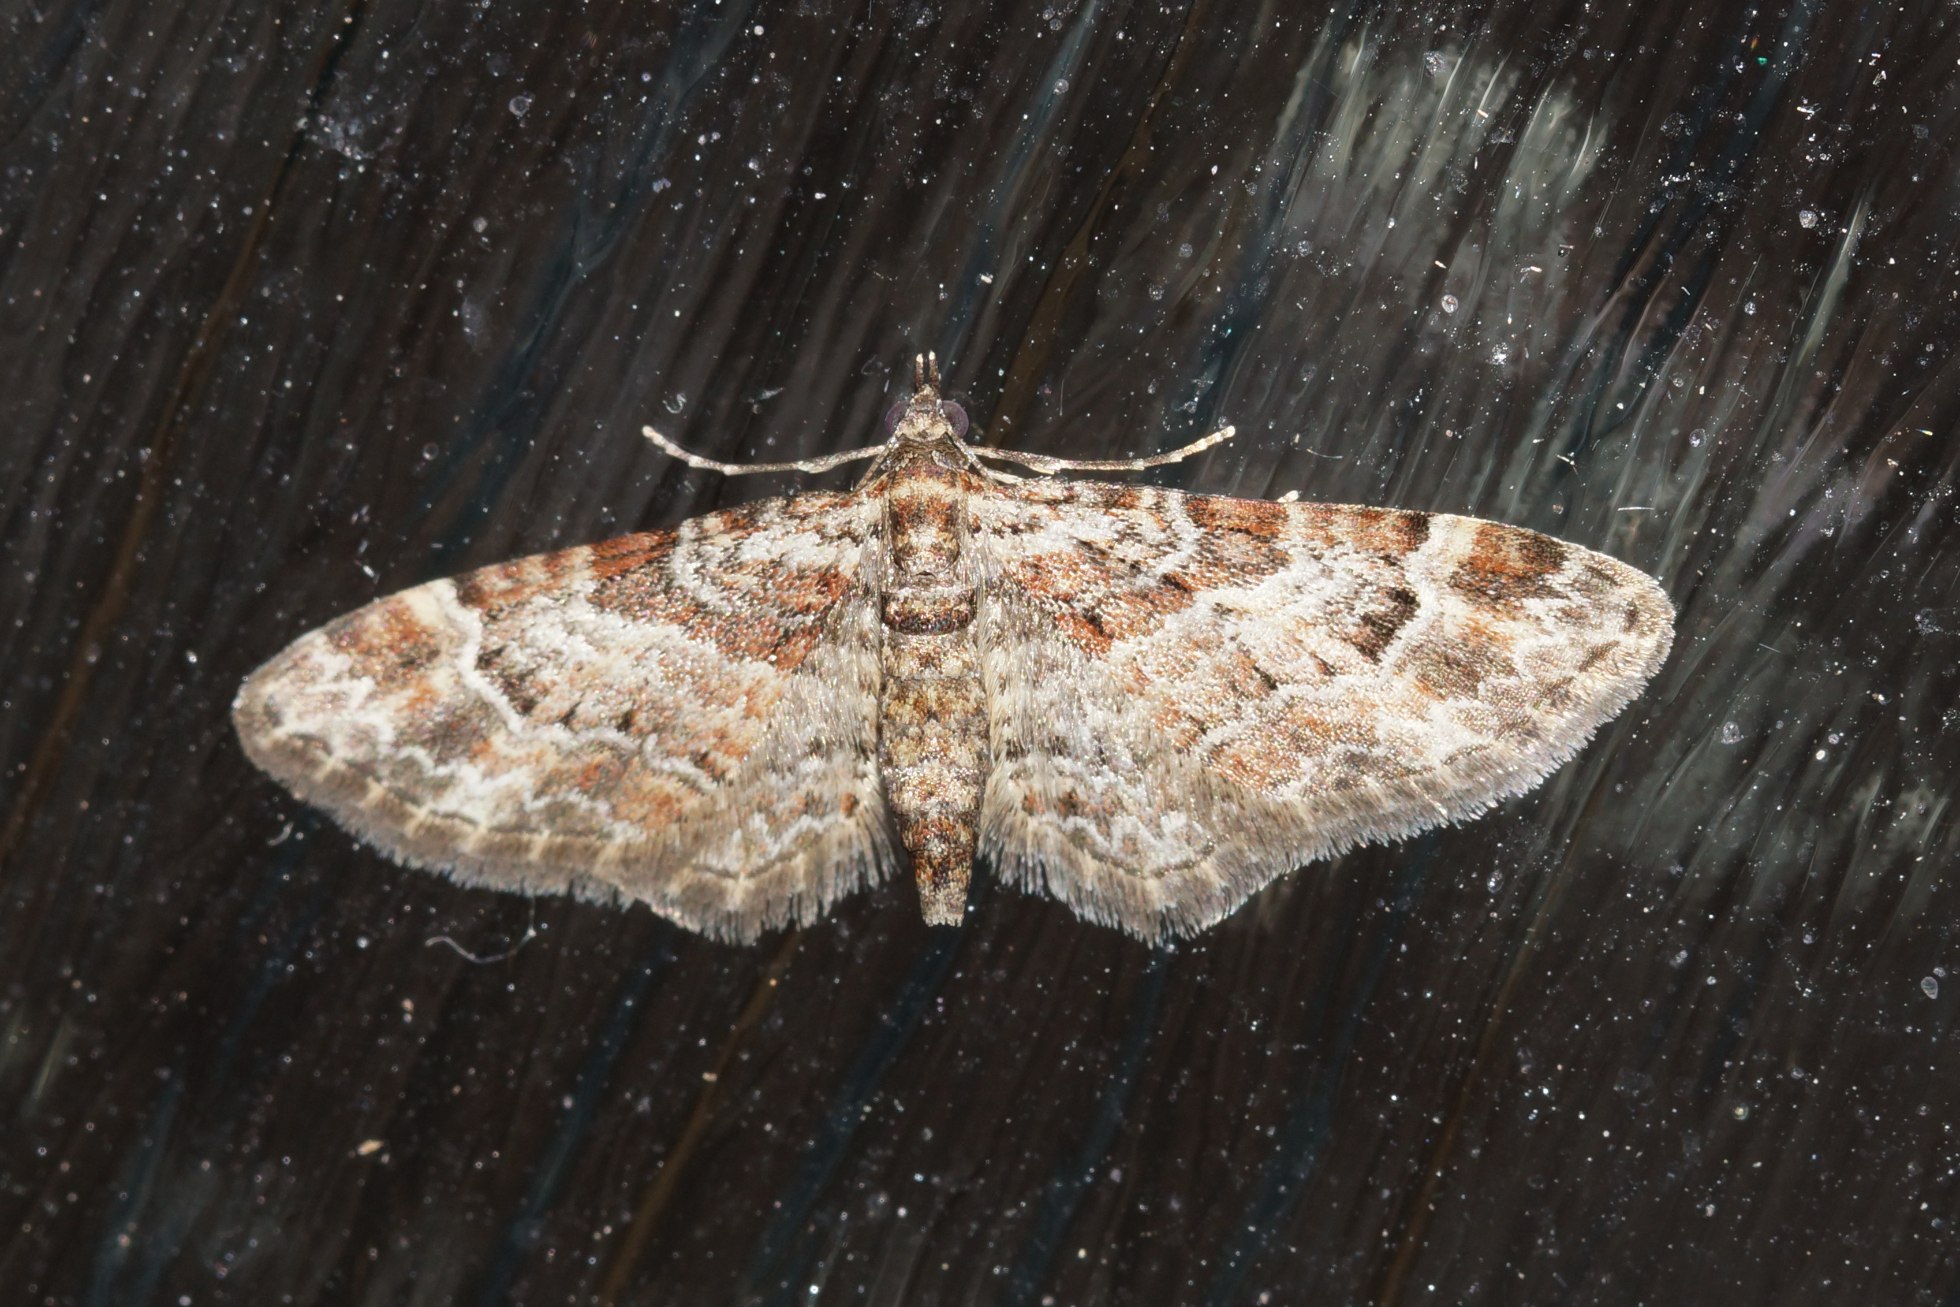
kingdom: Animalia
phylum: Arthropoda
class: Insecta
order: Lepidoptera
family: Geometridae
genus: Gymnoscelis
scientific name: Gymnoscelis rufifasciata
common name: Rødbåndet dværgmåler
